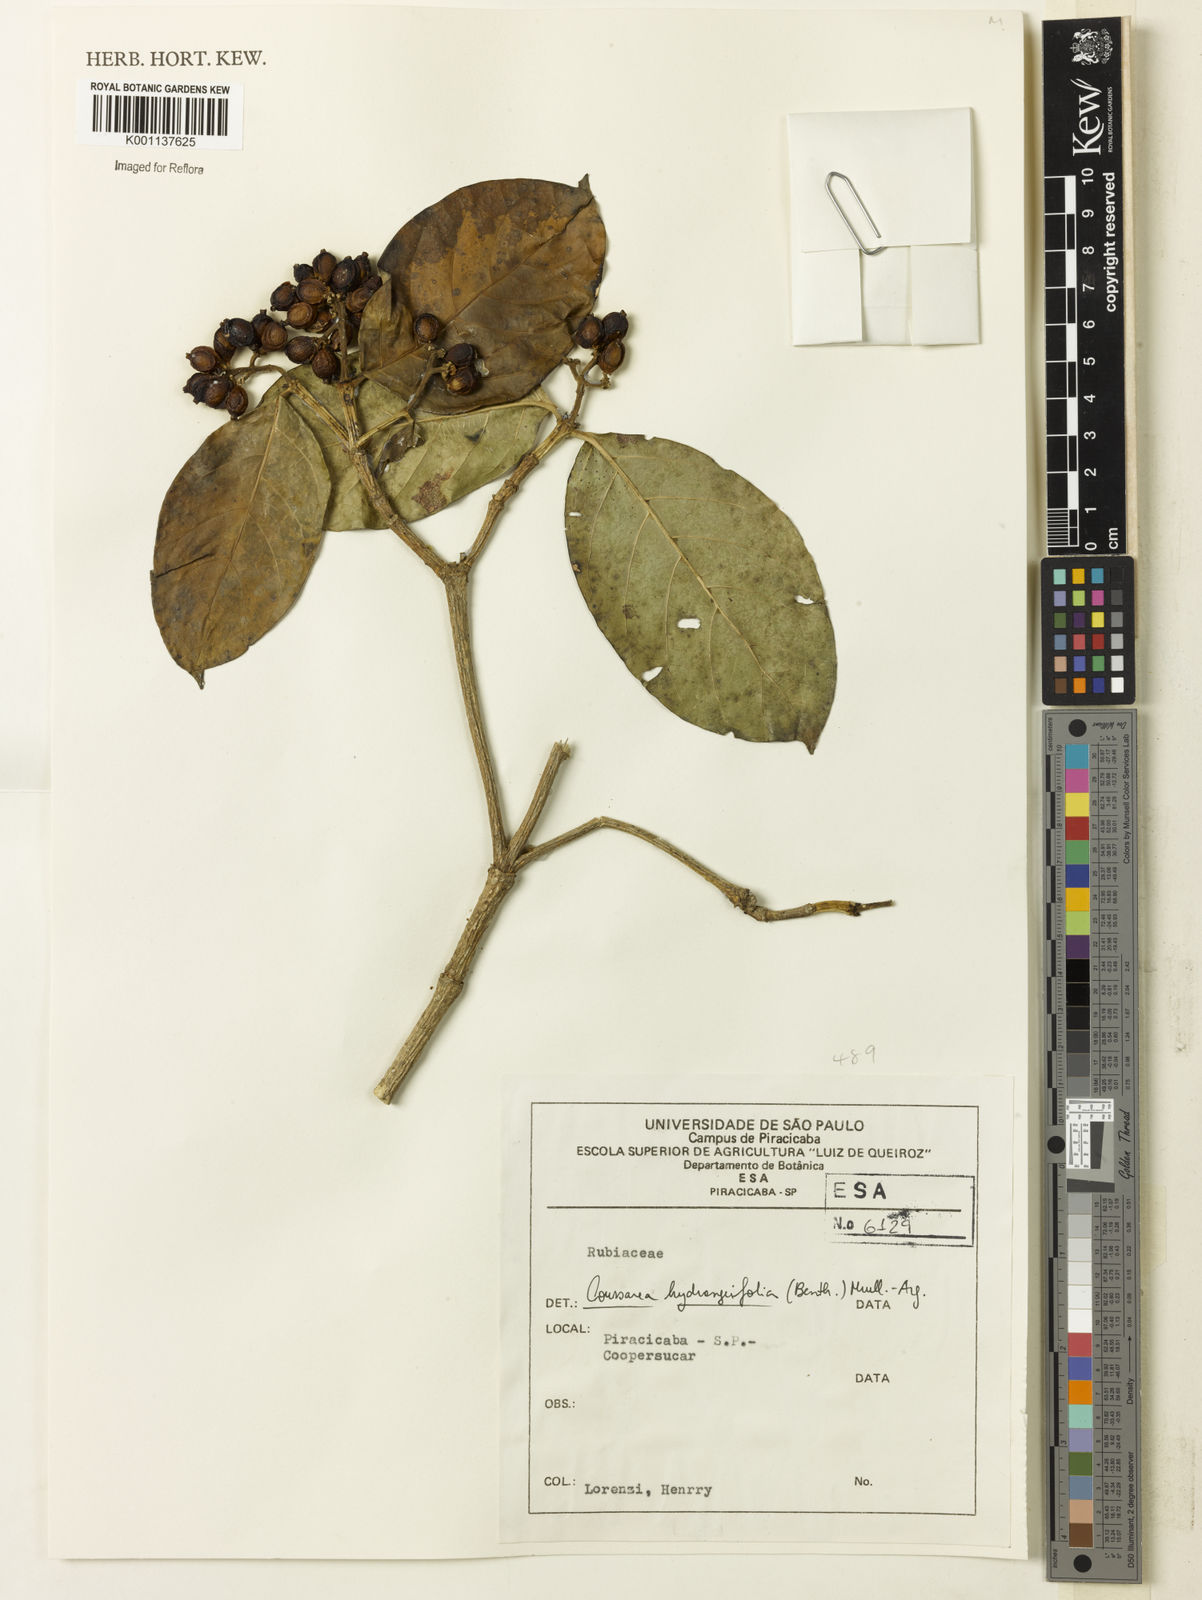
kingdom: Plantae
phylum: Tracheophyta
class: Magnoliopsida
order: Gentianales
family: Rubiaceae
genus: Coussarea
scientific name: Coussarea
